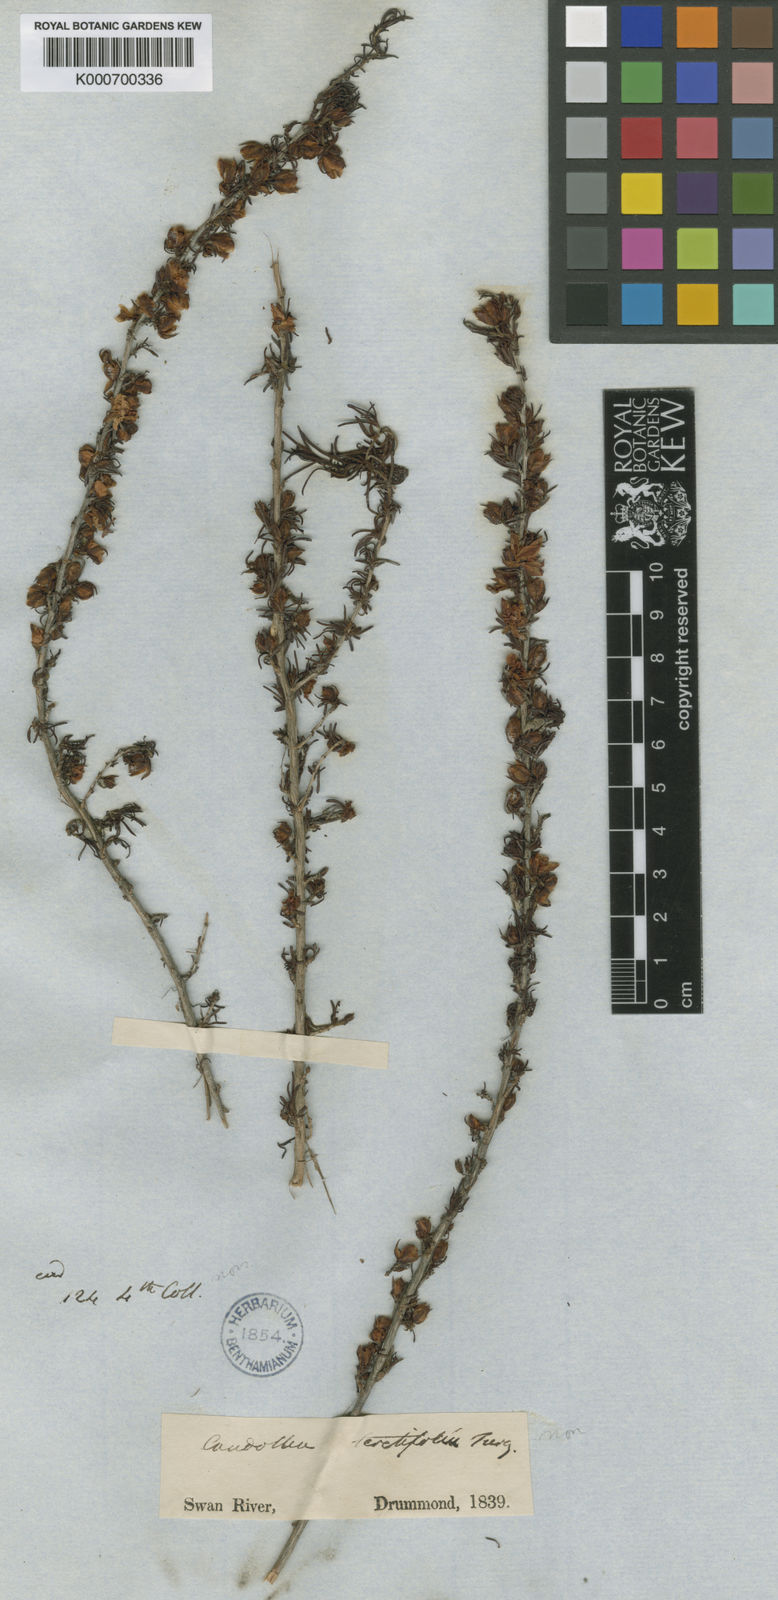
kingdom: Plantae
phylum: Tracheophyta
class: Magnoliopsida
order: Dilleniales
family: Dilleniaceae
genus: Hibbertia
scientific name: Hibbertia hibbertioides
